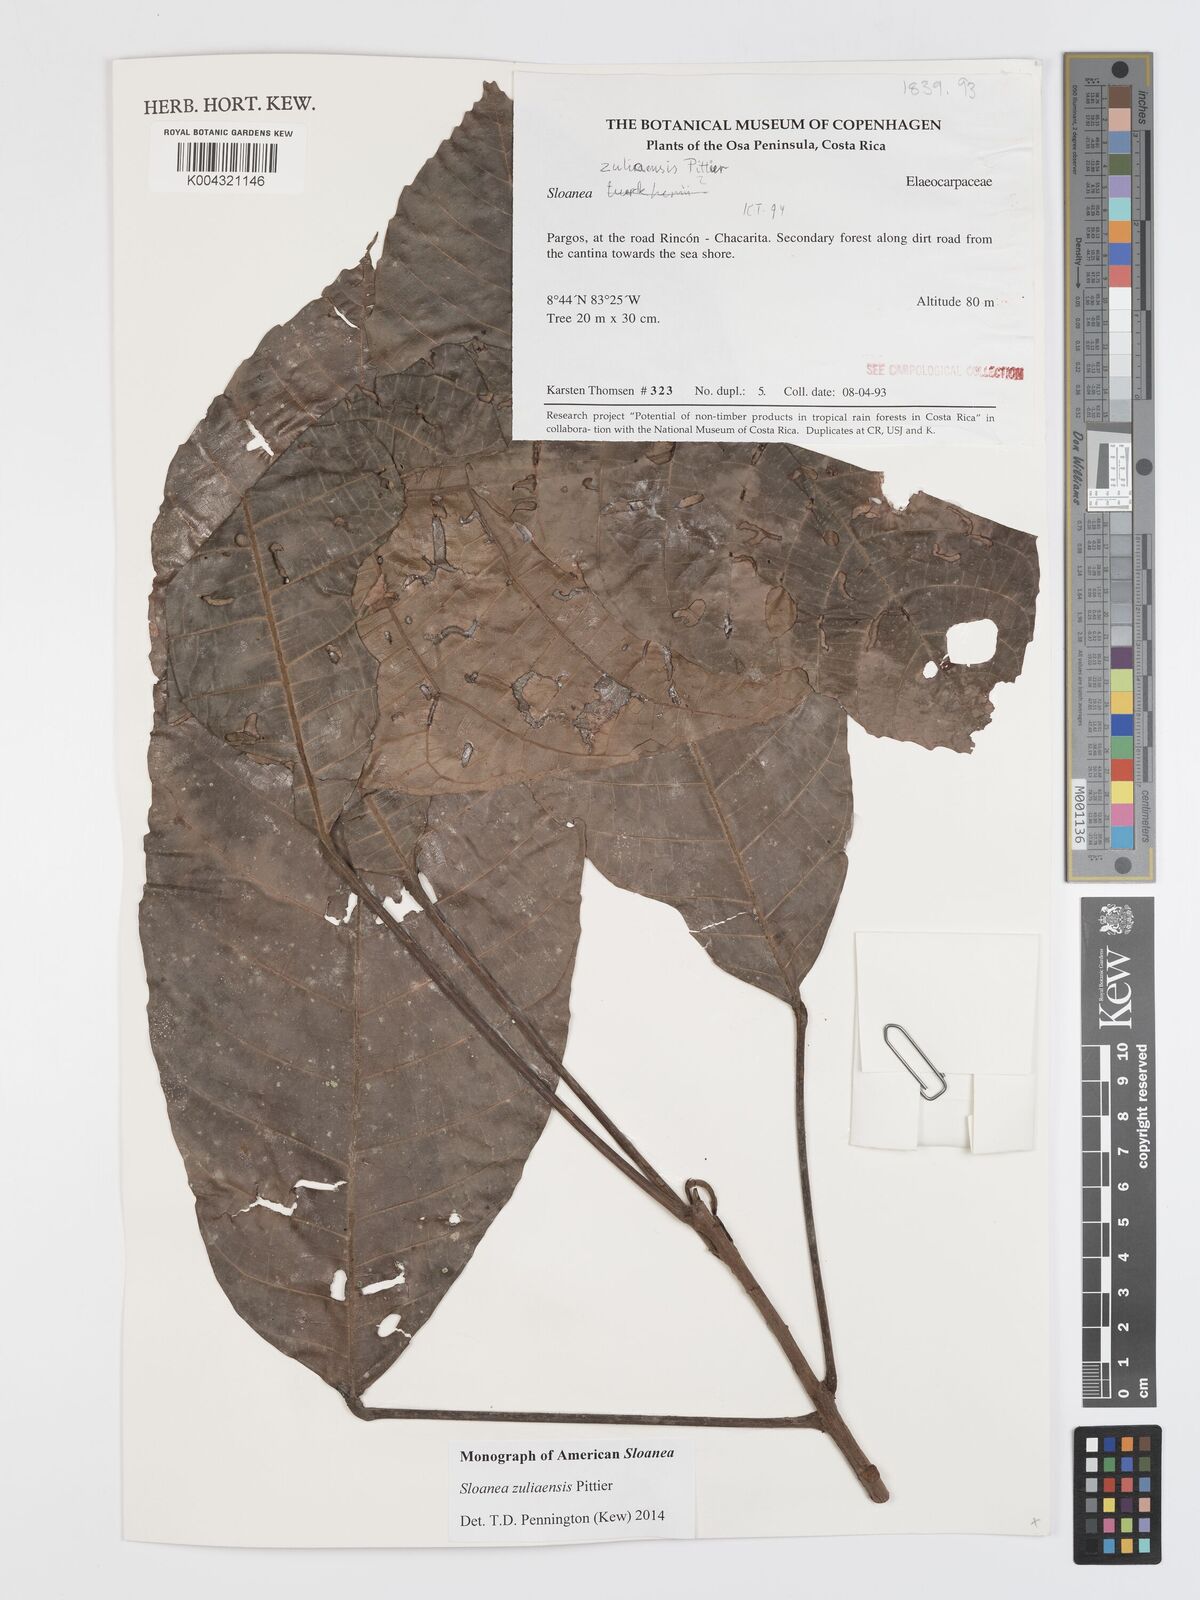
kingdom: Plantae
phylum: Tracheophyta
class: Magnoliopsida
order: Oxalidales
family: Elaeocarpaceae
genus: Sloanea
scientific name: Sloanea zuliaensis
